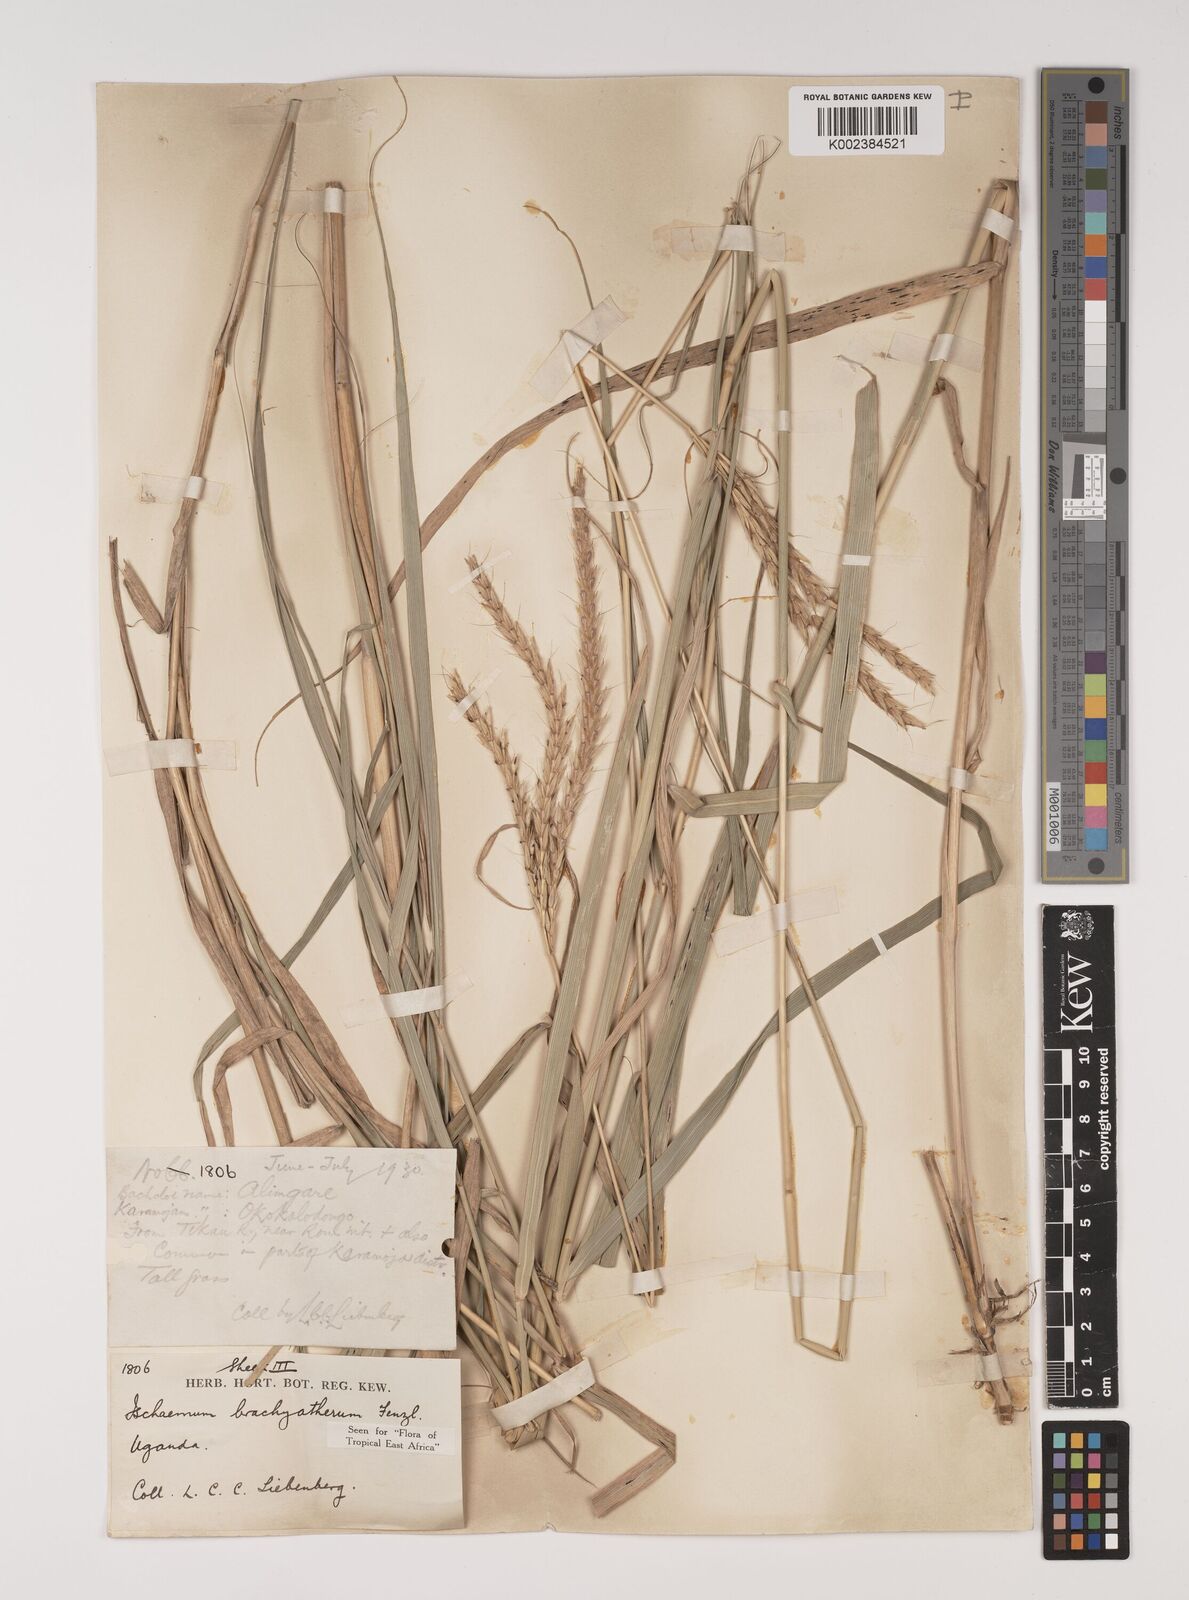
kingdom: Plantae
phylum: Tracheophyta
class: Liliopsida
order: Poales
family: Poaceae
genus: Ischaemum
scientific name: Ischaemum afrum
